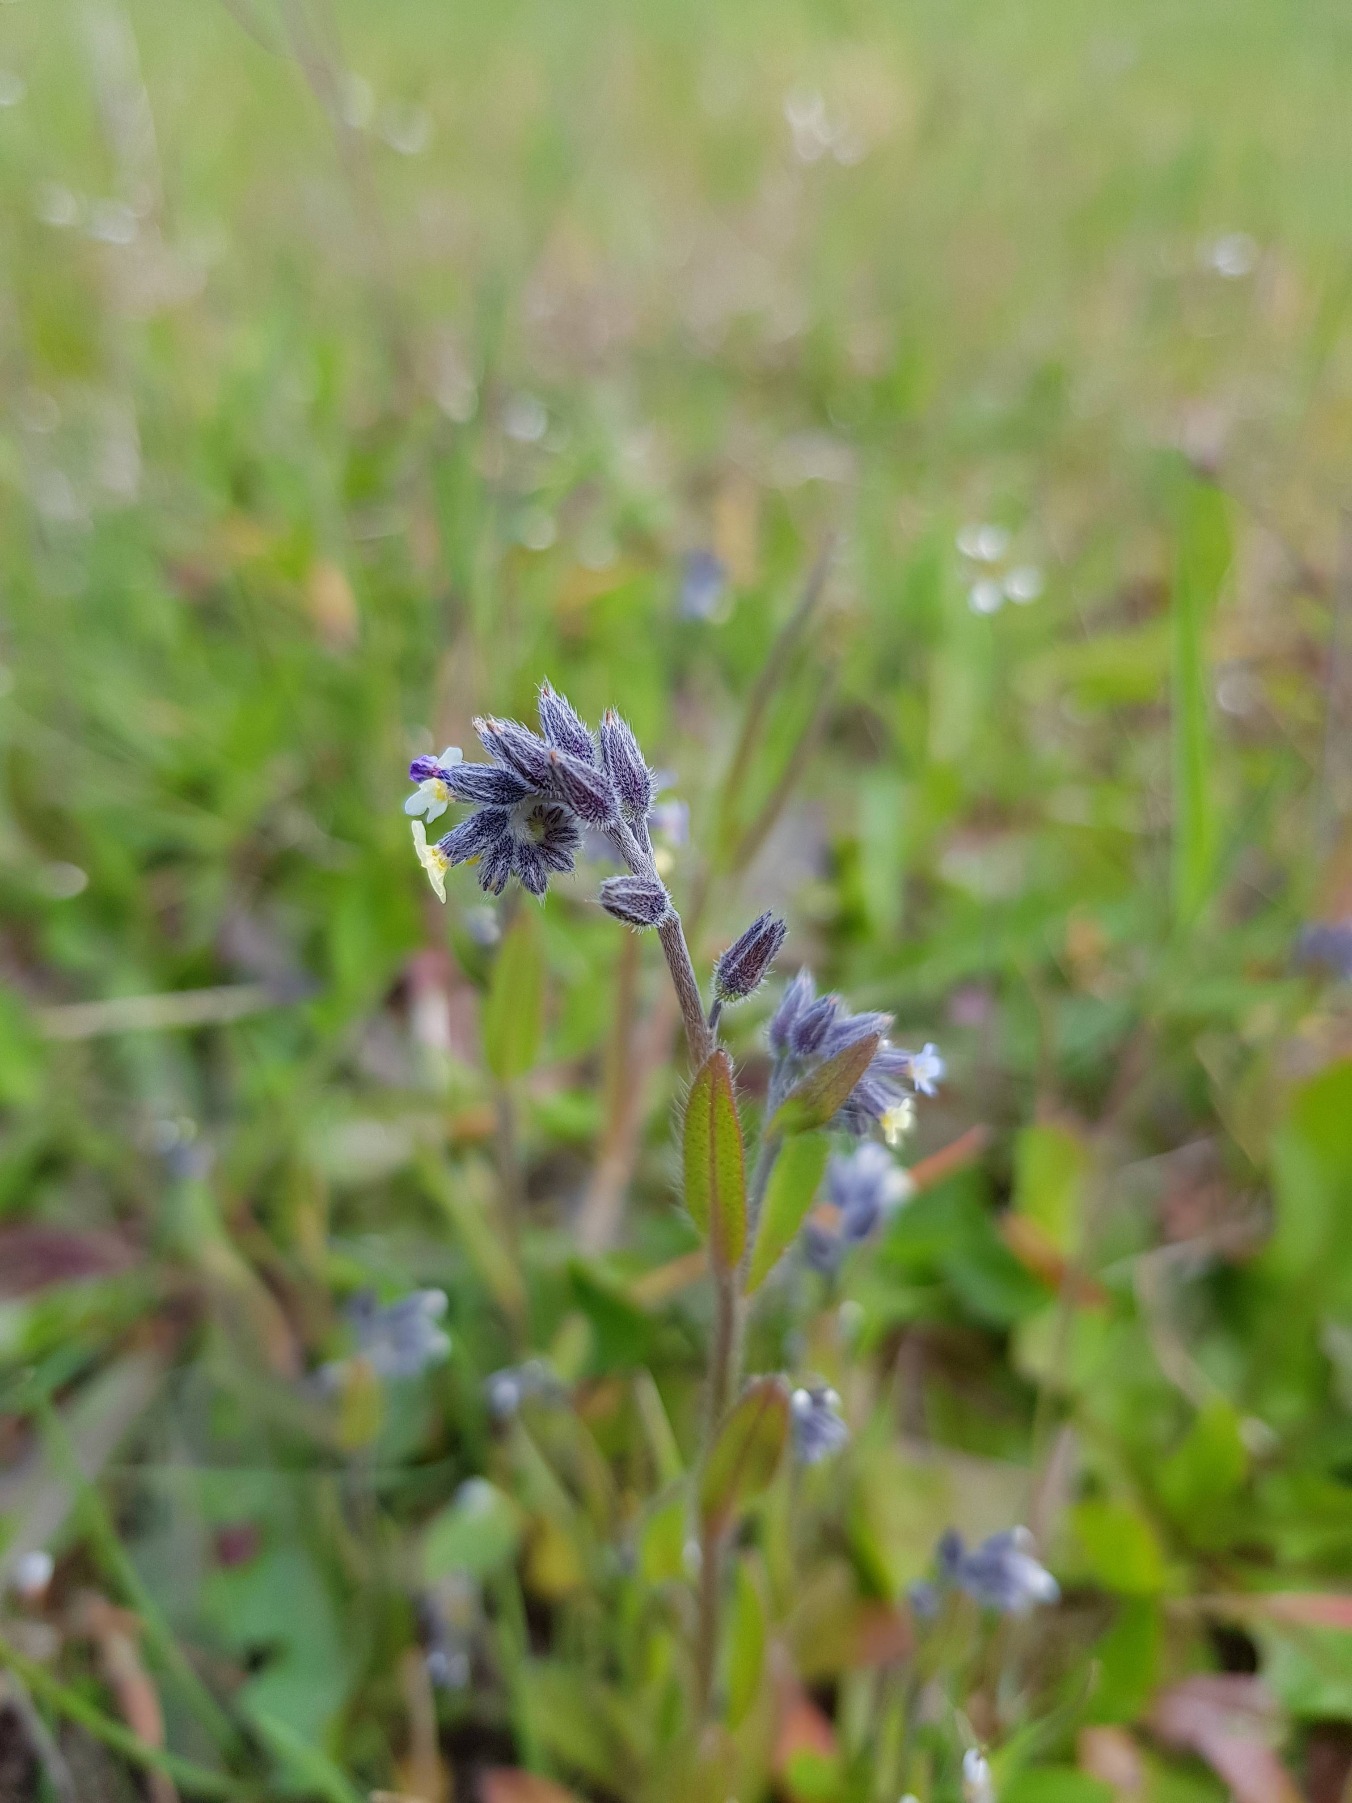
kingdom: Plantae
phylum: Tracheophyta
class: Magnoliopsida
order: Boraginales
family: Boraginaceae
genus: Myosotis
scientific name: Myosotis discolor
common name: Forskelligfarvet forglemmigej
